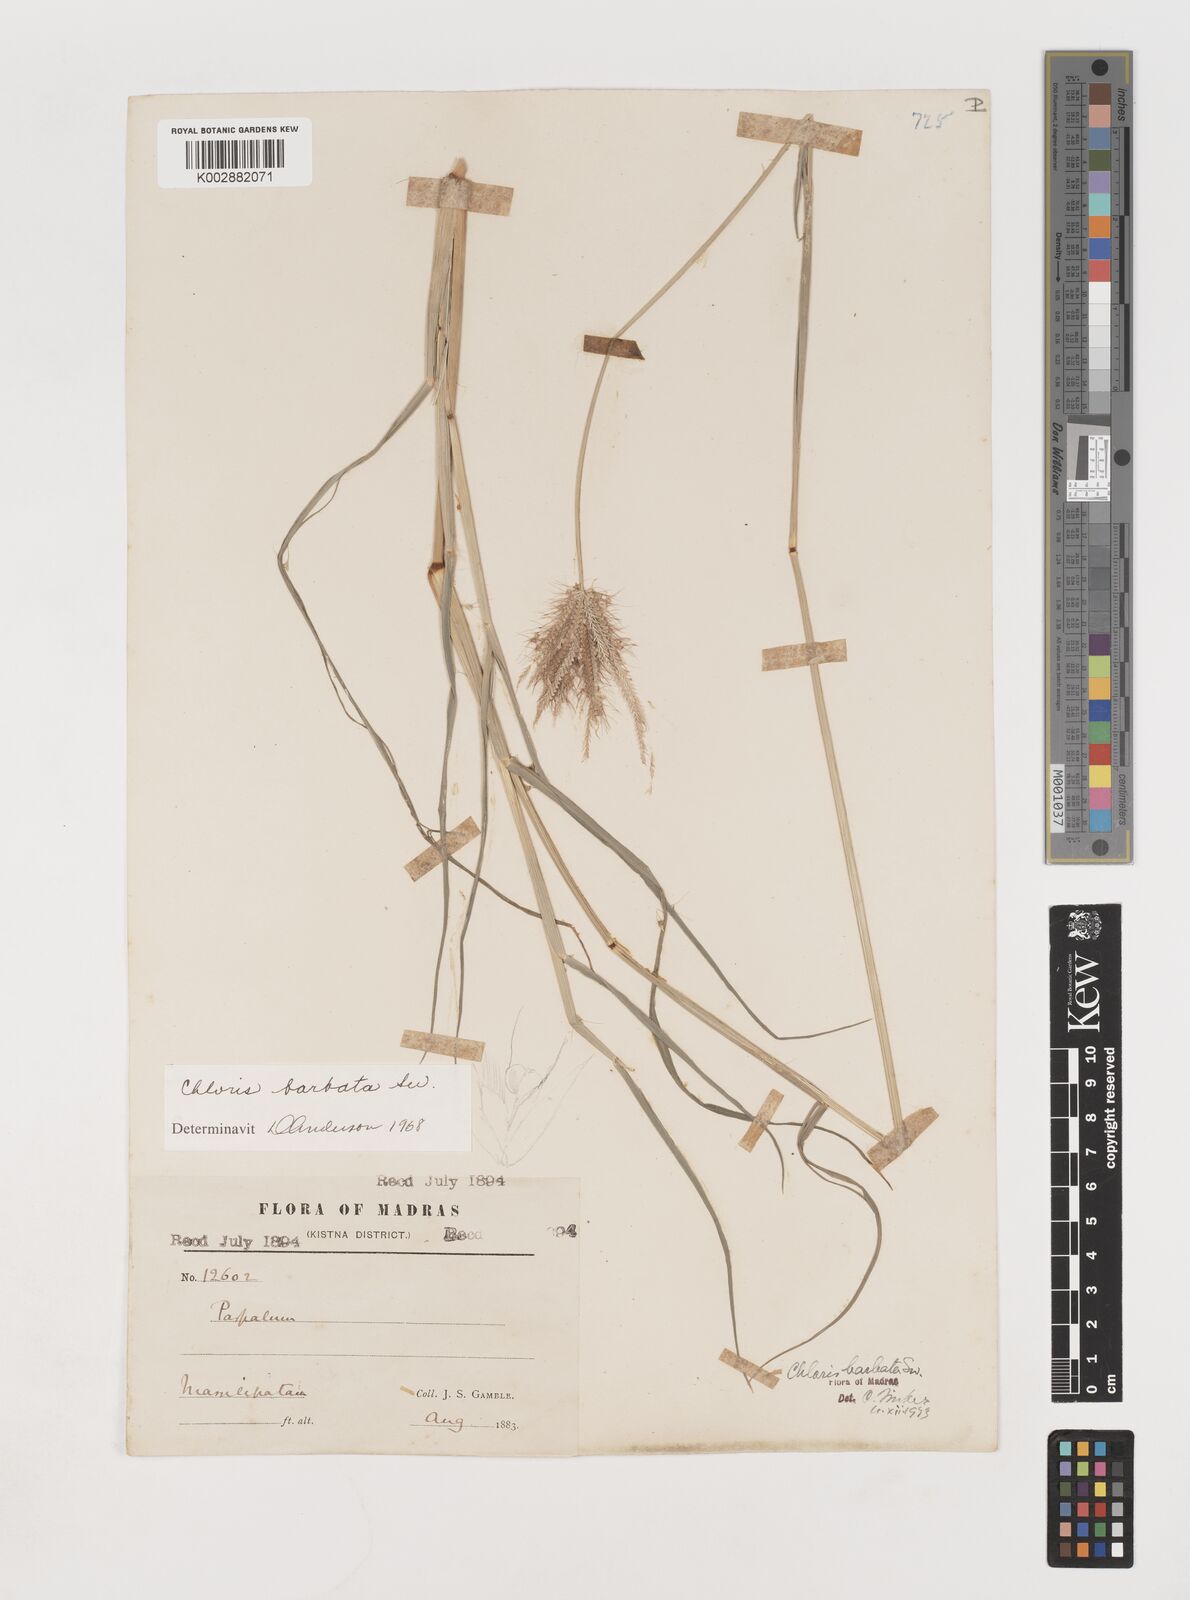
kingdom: Plantae
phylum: Tracheophyta
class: Liliopsida
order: Poales
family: Poaceae
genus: Chloris
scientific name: Chloris barbata
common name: Swollen fingergrass
